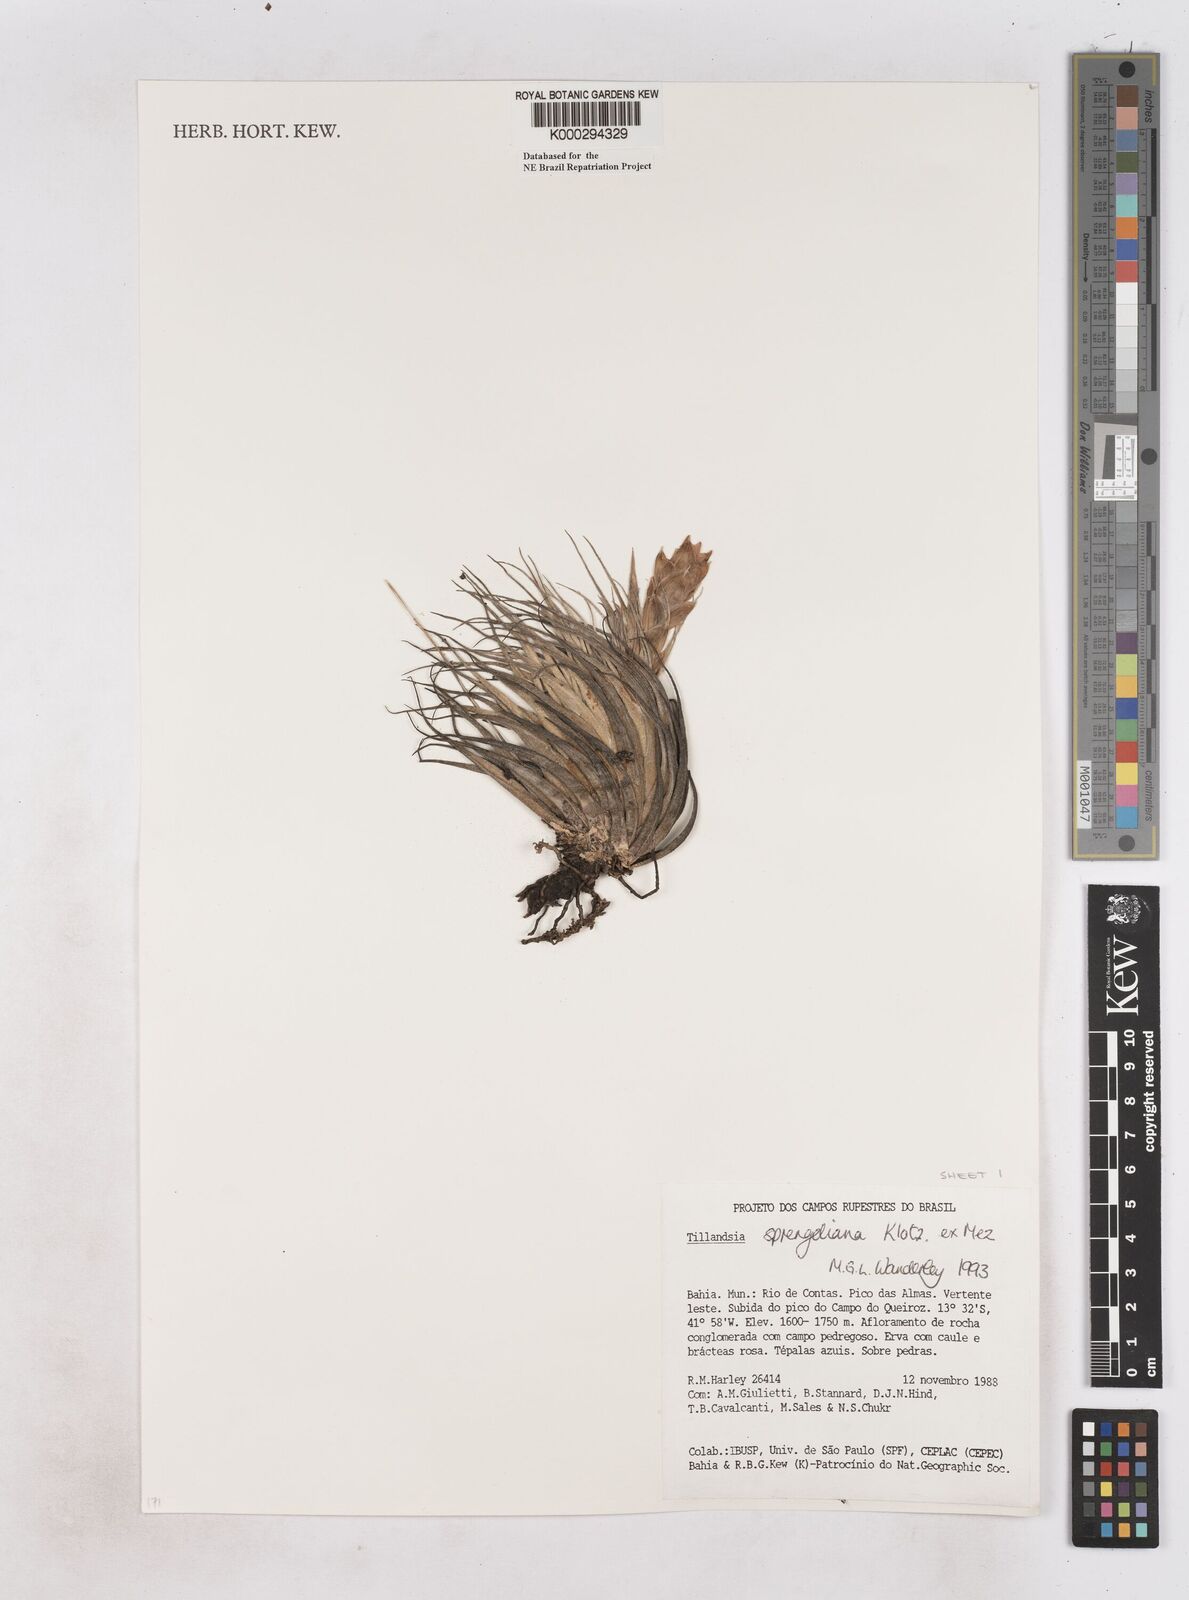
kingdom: Plantae
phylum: Tracheophyta
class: Liliopsida
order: Poales
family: Bromeliaceae
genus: Tillandsia
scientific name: Tillandsia sprengeliana
